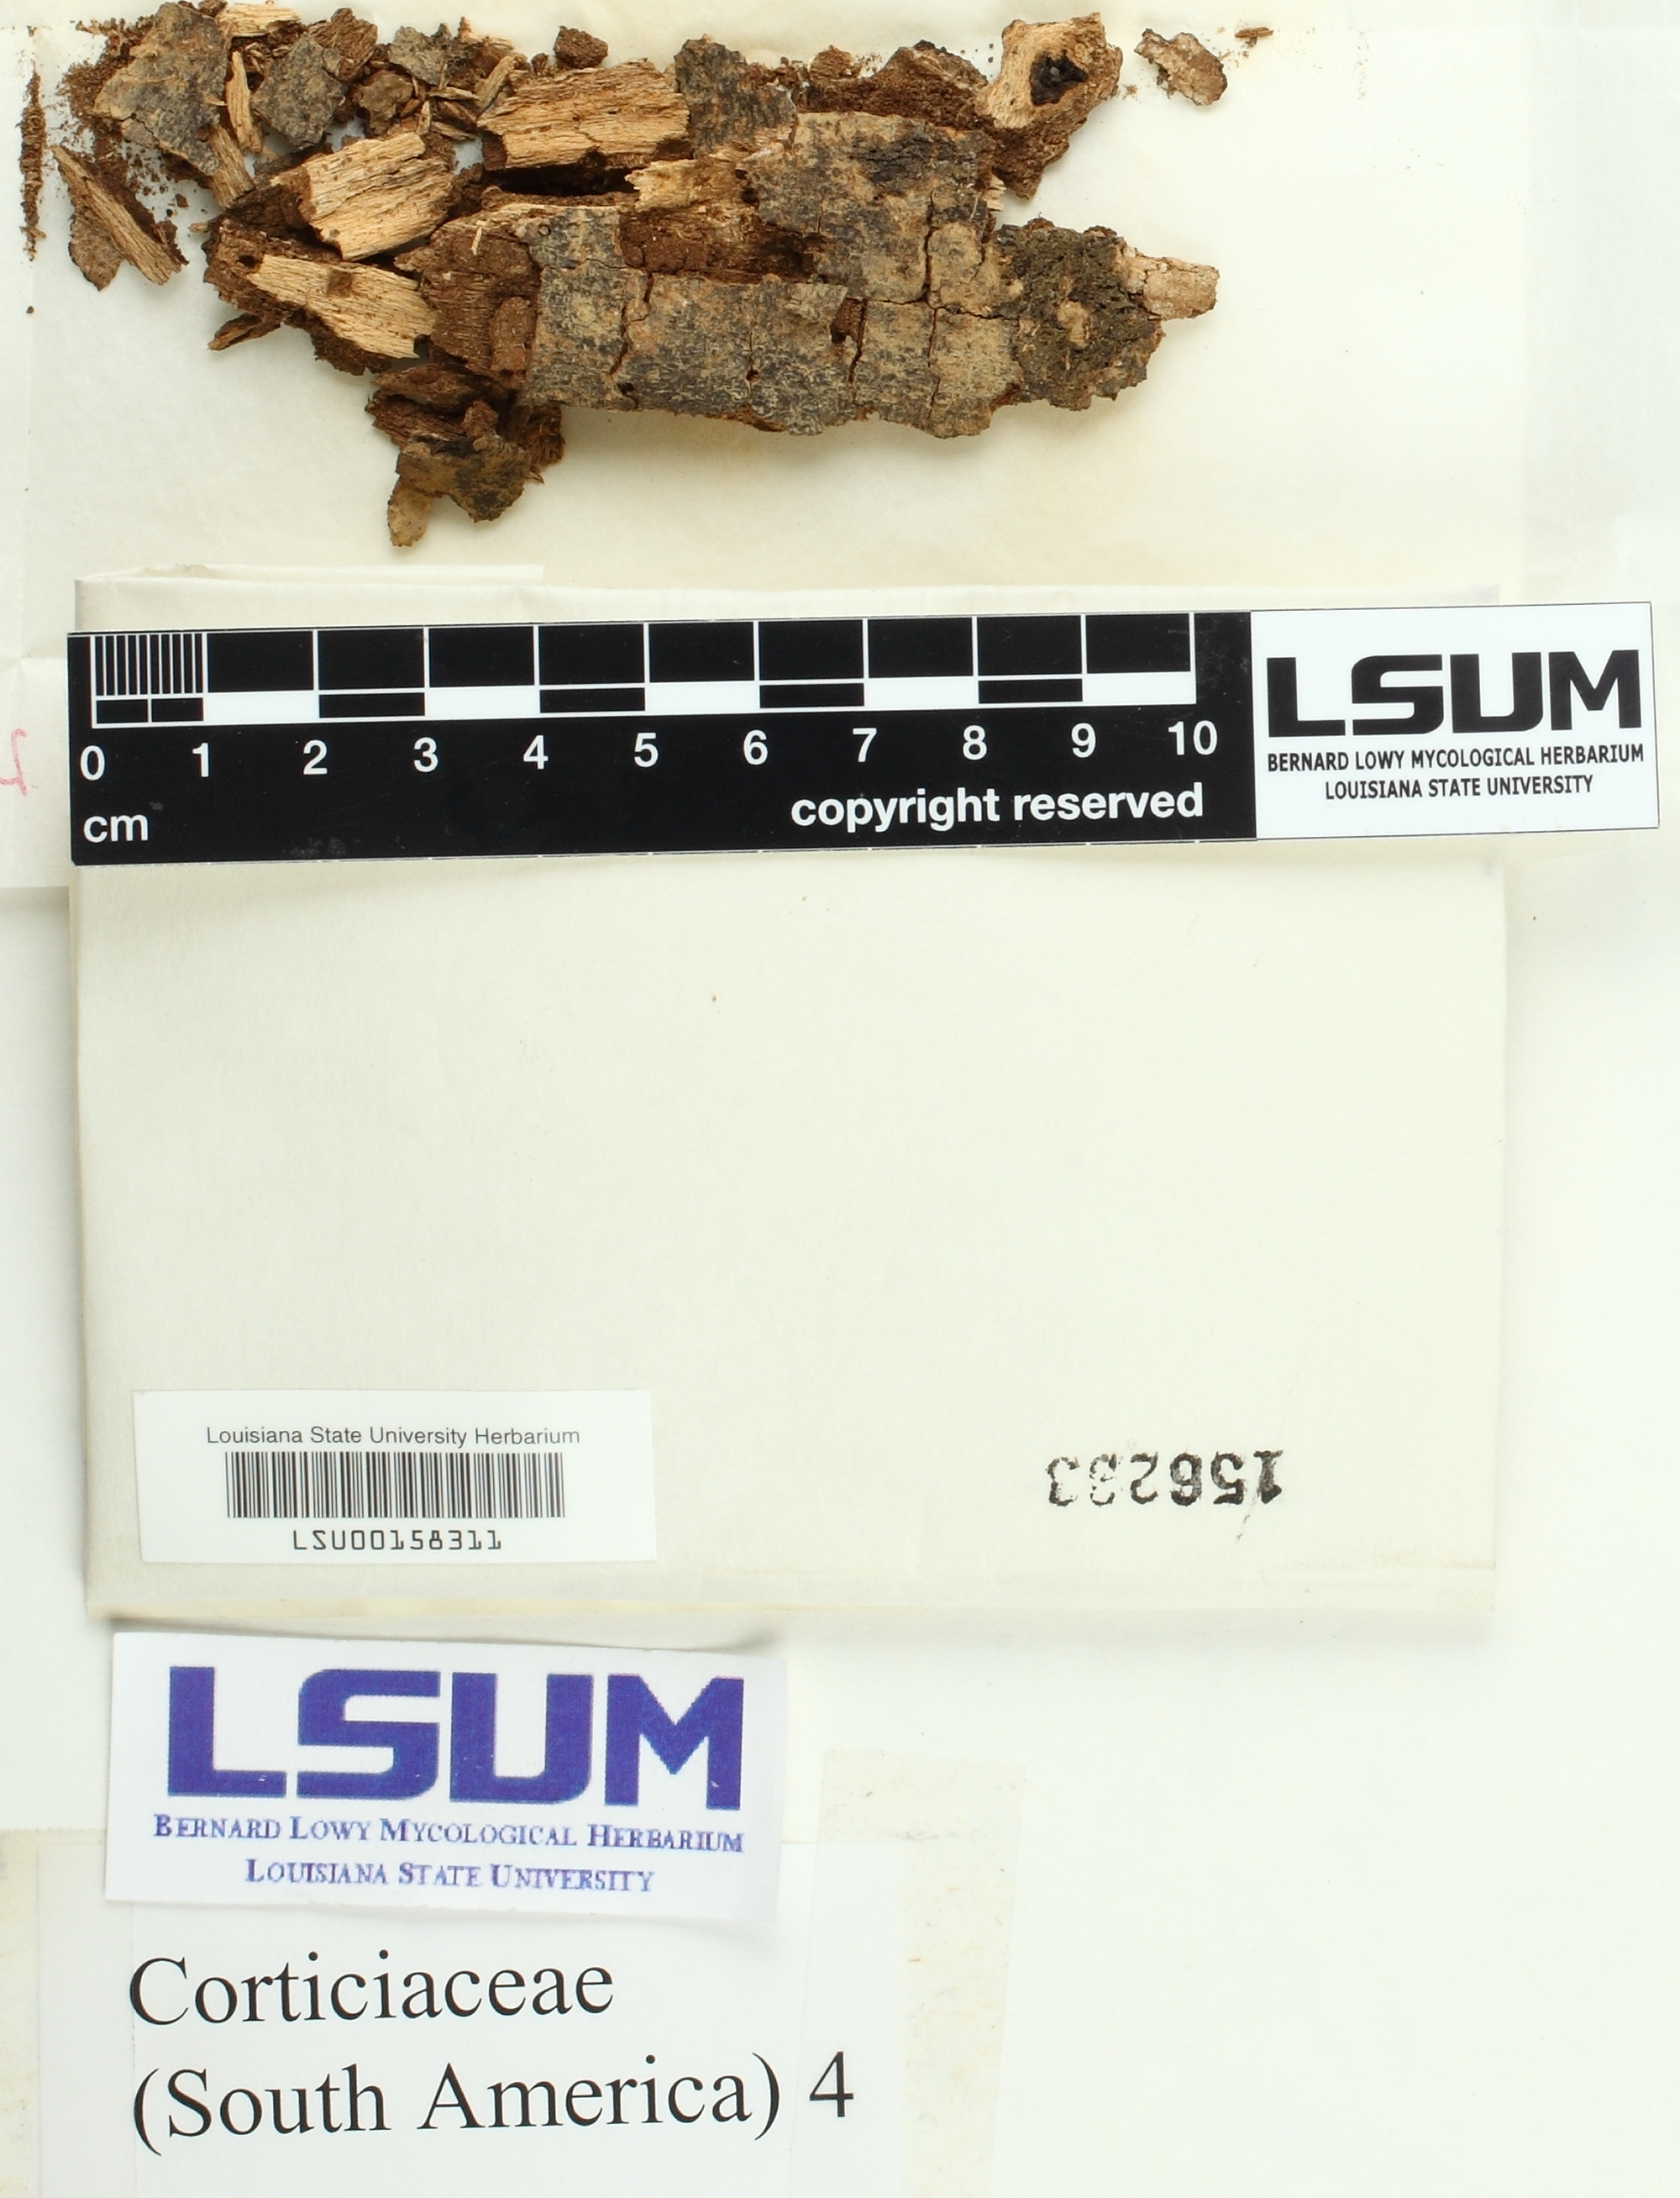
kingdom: Fungi
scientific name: Fungi
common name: Fungi
